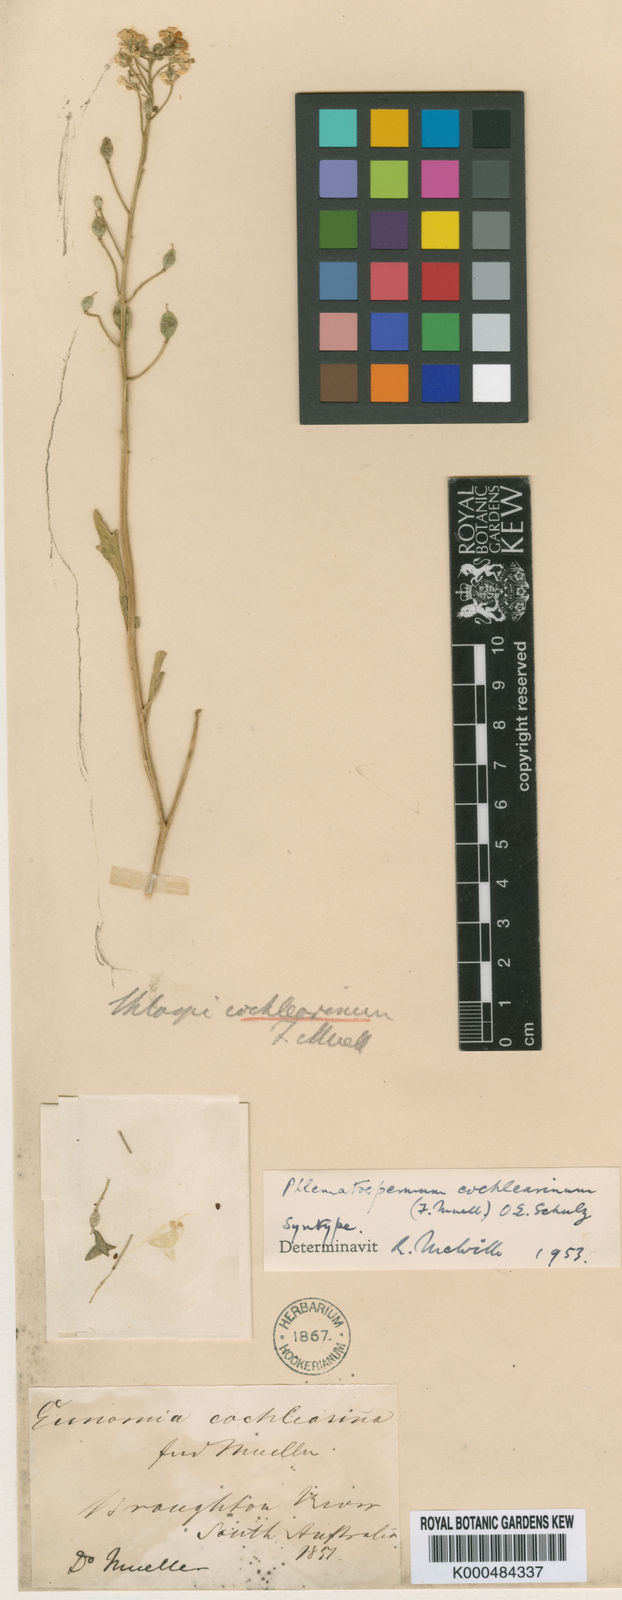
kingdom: Plantae
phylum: Tracheophyta
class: Magnoliopsida
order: Brassicales
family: Brassicaceae
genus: Phlegmatospermum
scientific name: Phlegmatospermum cochlearinum
